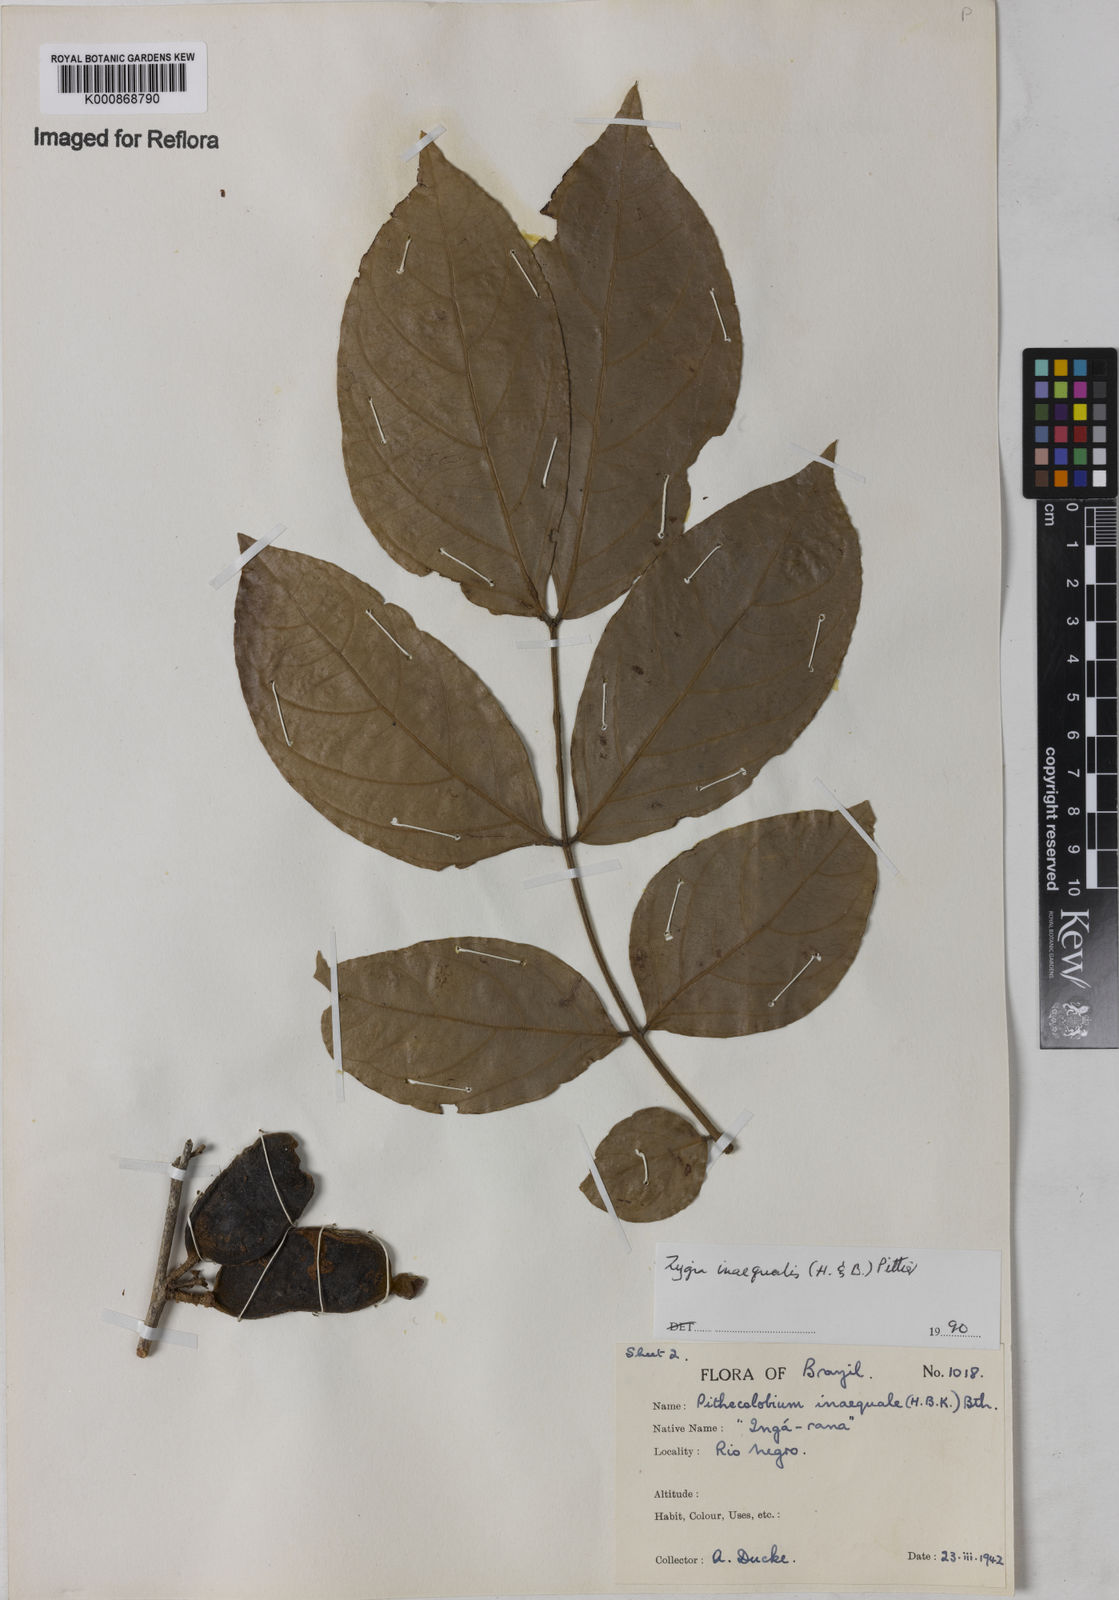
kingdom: Plantae
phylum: Tracheophyta
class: Magnoliopsida
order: Fabales
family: Fabaceae
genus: Zygia
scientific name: Zygia inaequalis
